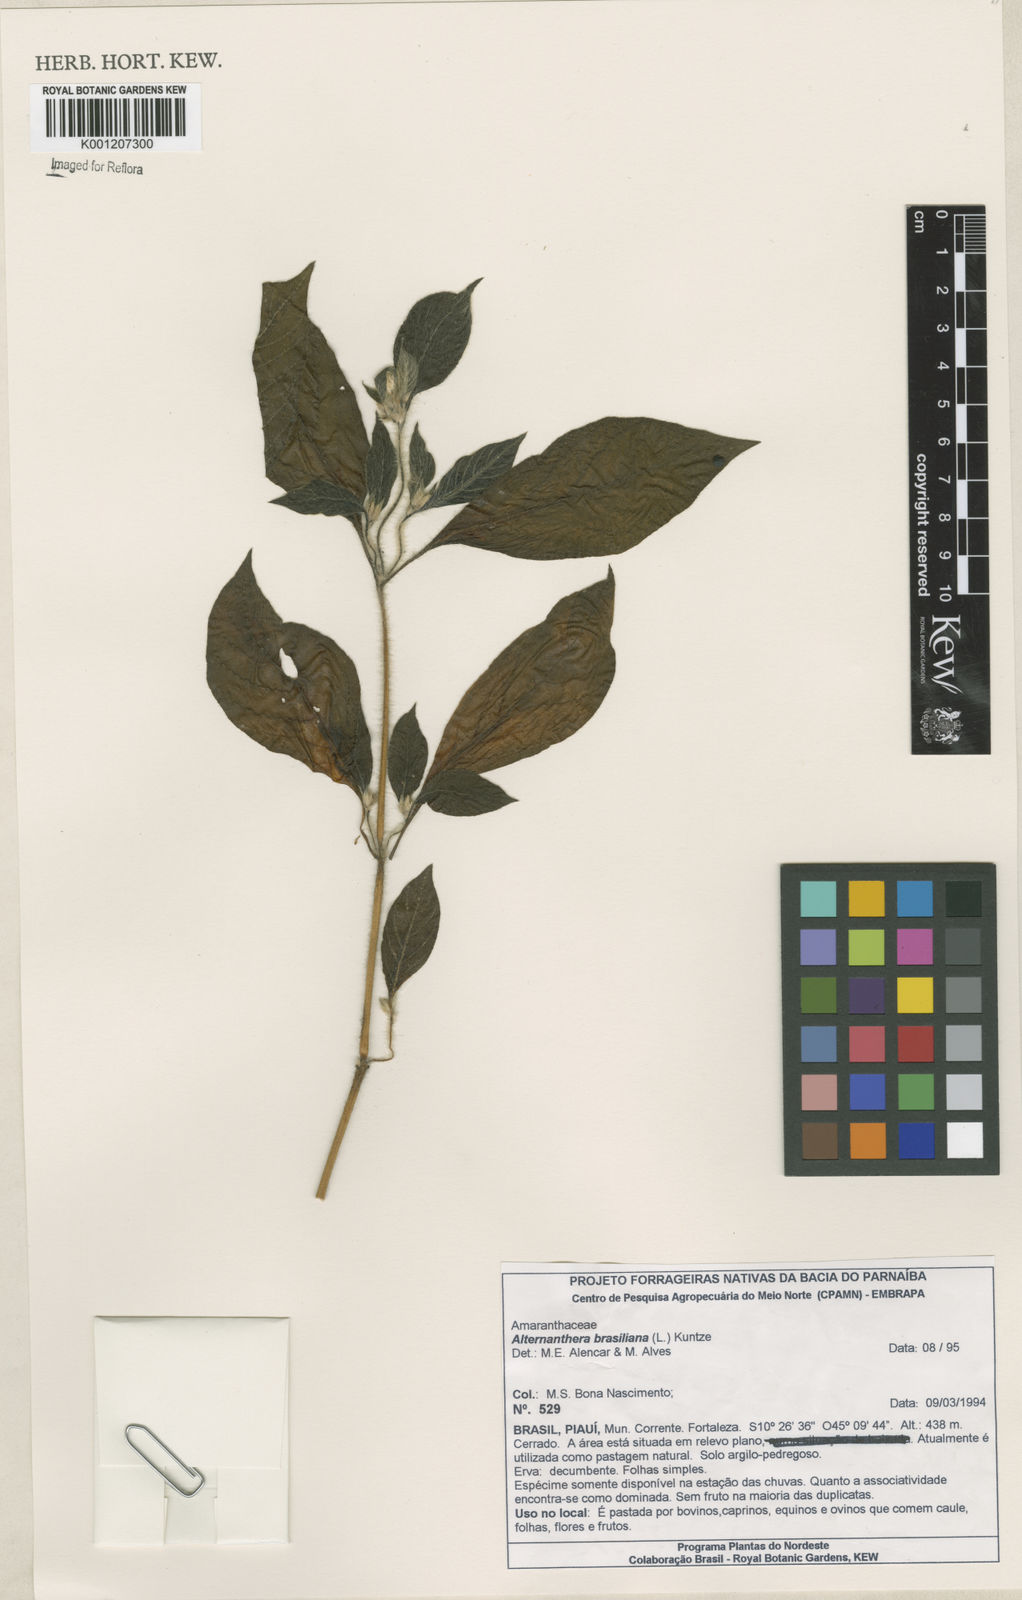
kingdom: Plantae
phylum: Tracheophyta
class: Magnoliopsida
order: Caryophyllales
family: Amaranthaceae
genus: Alternanthera
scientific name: Alternanthera brasiliana
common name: Brazilian joyweed
